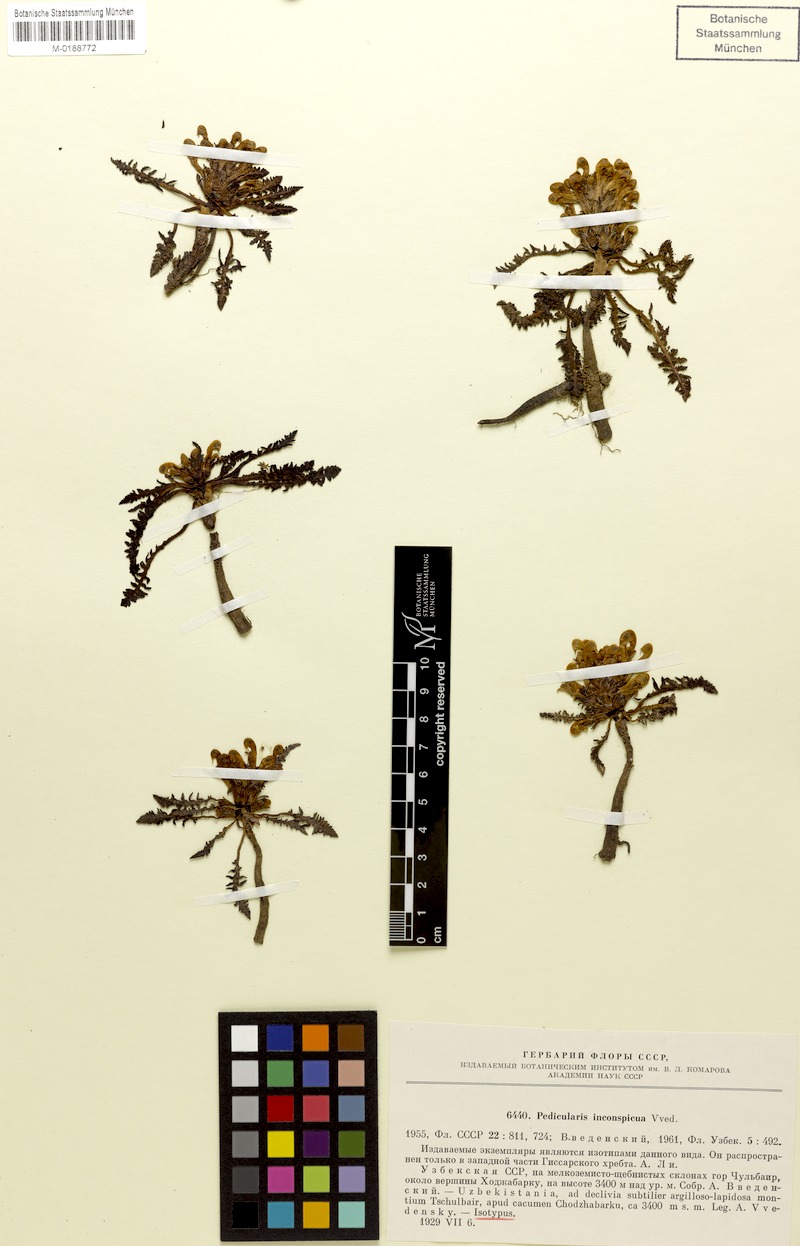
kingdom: Plantae
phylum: Tracheophyta
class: Magnoliopsida
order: Lamiales
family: Orobanchaceae
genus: Pedicularis
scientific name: Pedicularis multicolor
